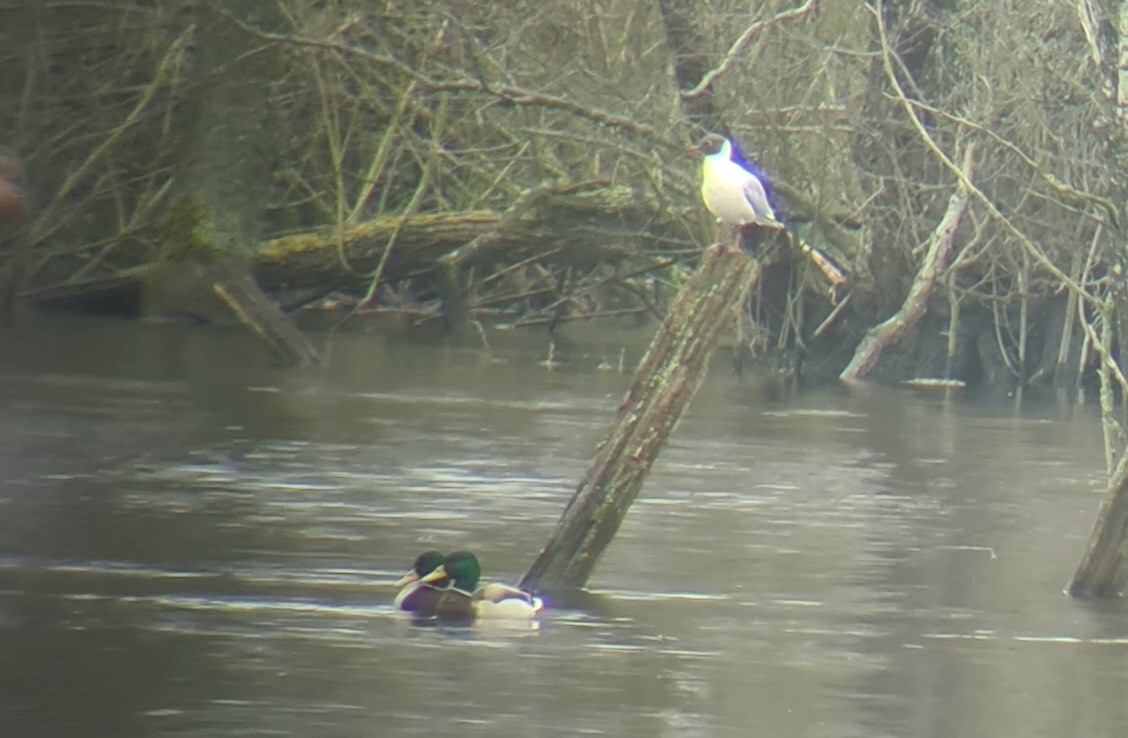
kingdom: Animalia
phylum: Chordata
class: Aves
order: Anseriformes
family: Anatidae
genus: Anas
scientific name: Anas platyrhynchos
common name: Gråand
